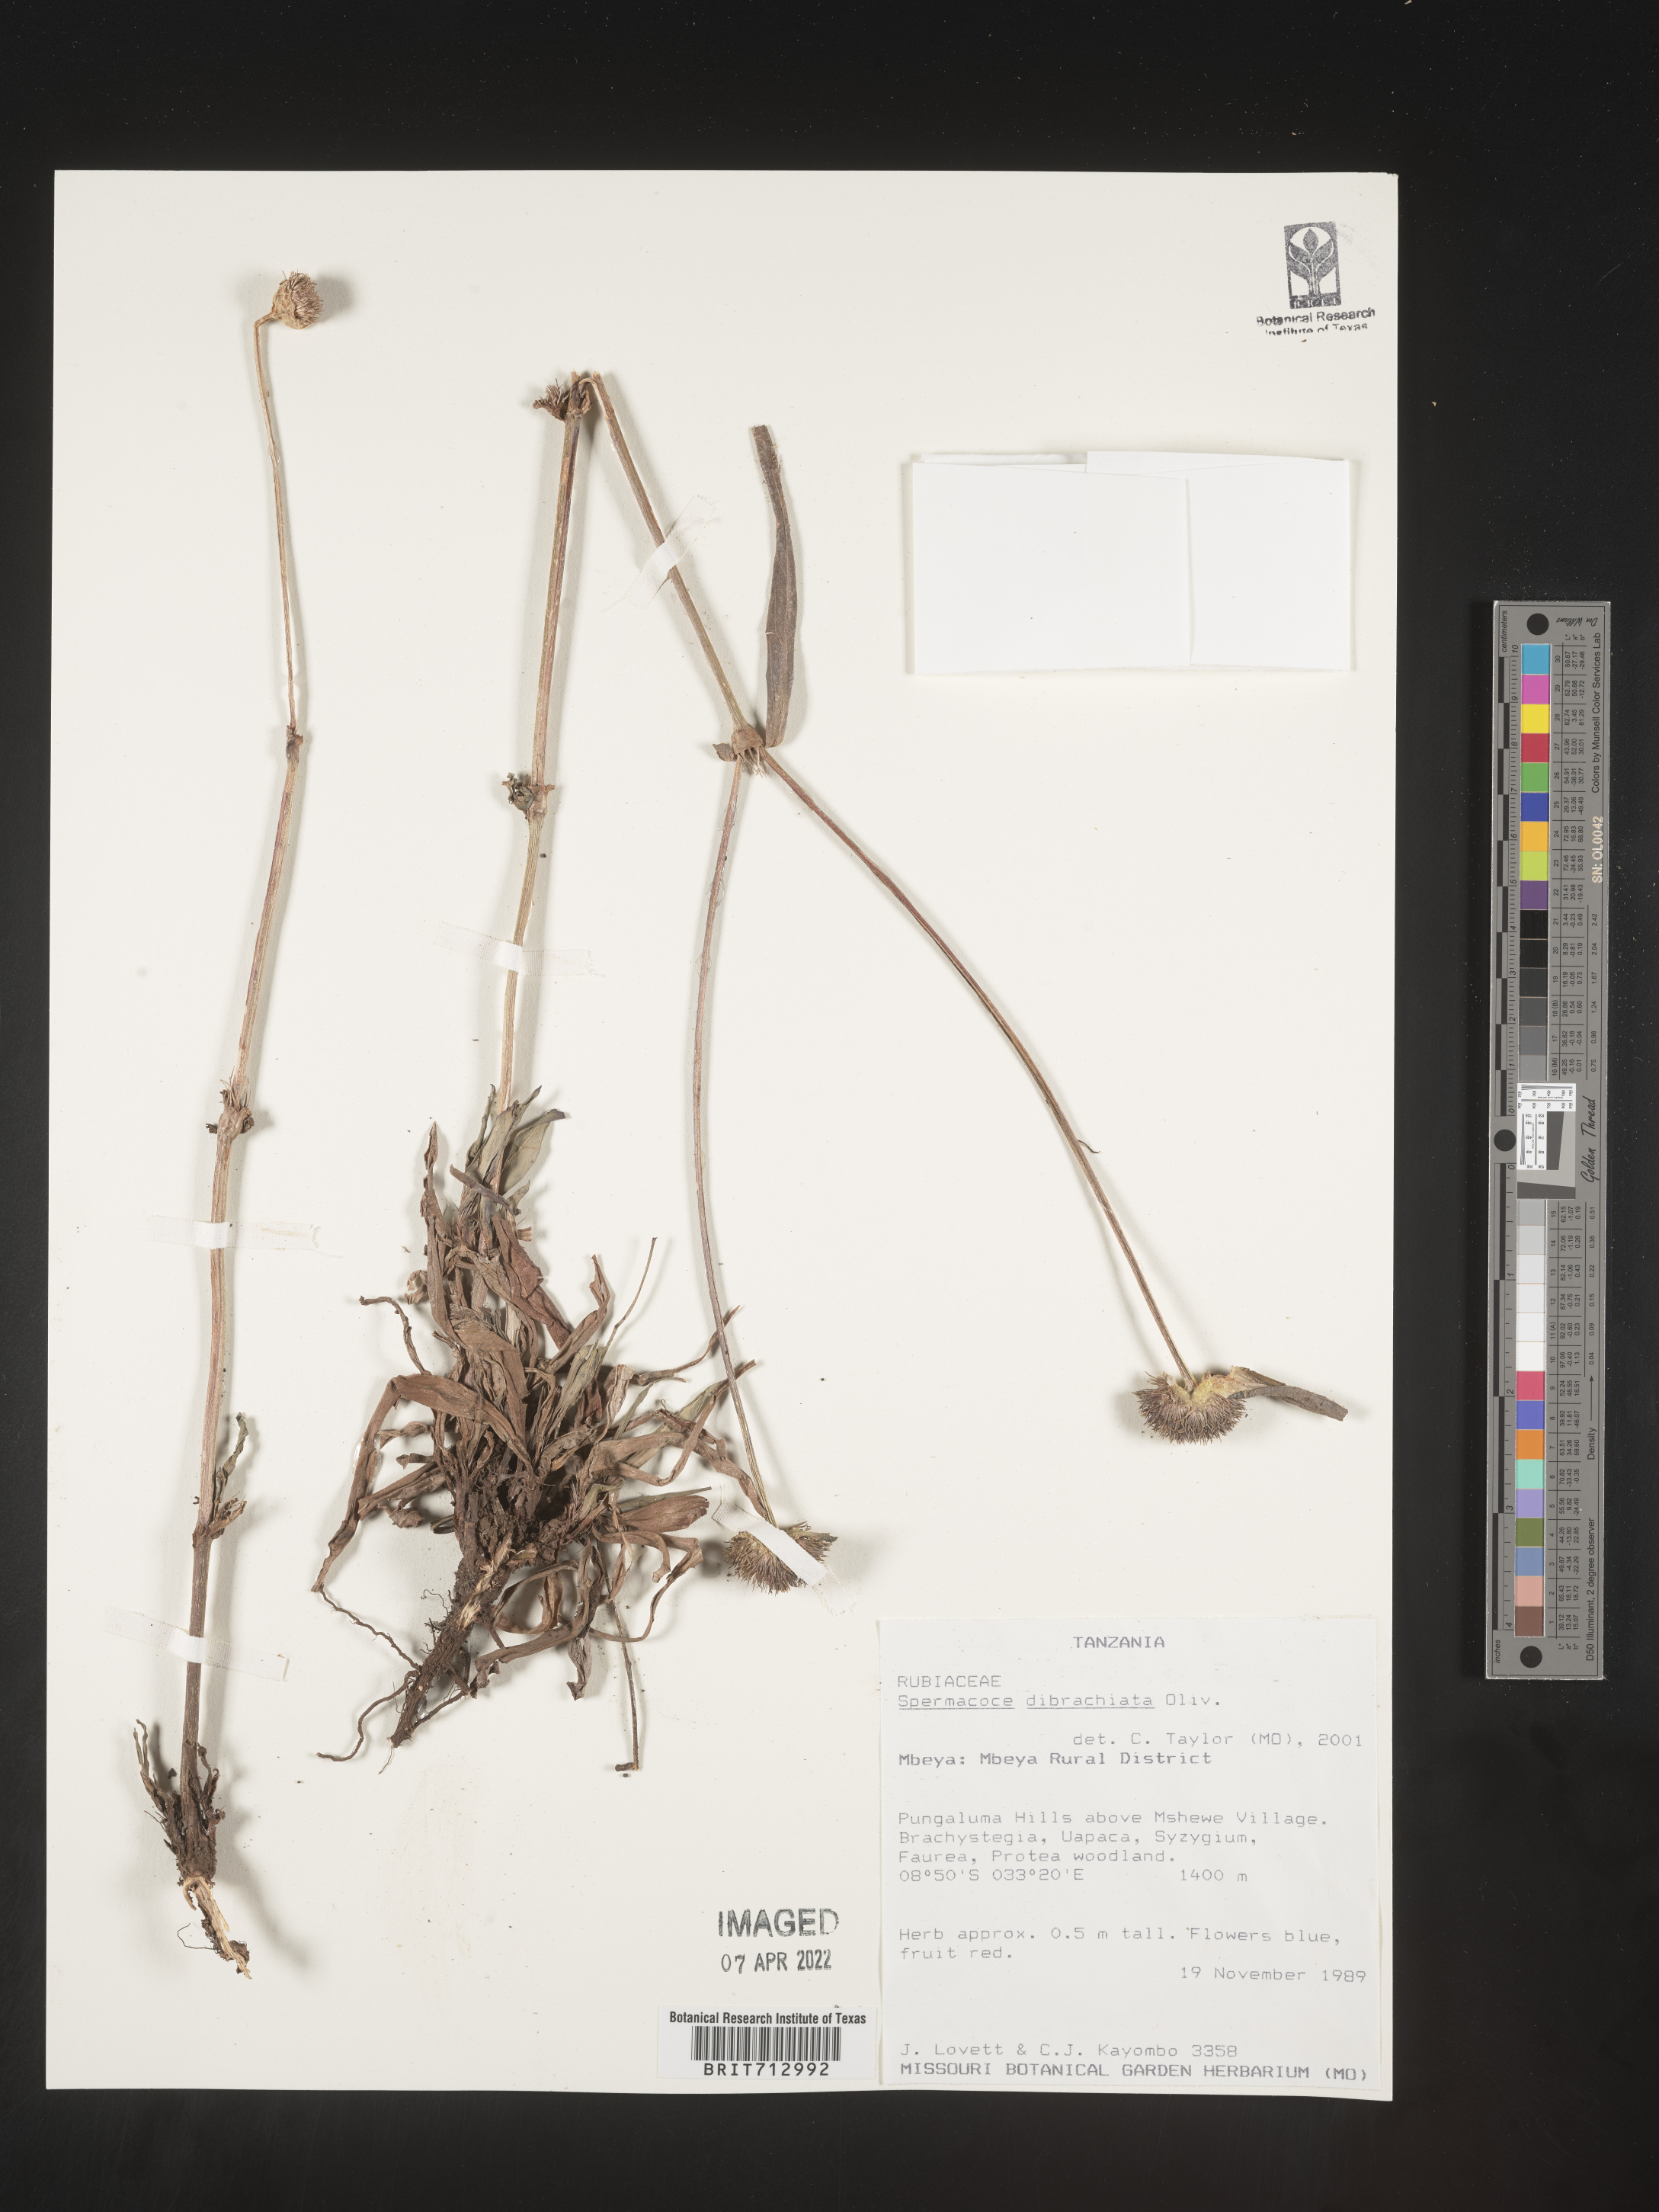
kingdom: Plantae
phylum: Tracheophyta
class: Magnoliopsida
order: Gentianales
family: Rubiaceae
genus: Spermacoce
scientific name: Spermacoce
